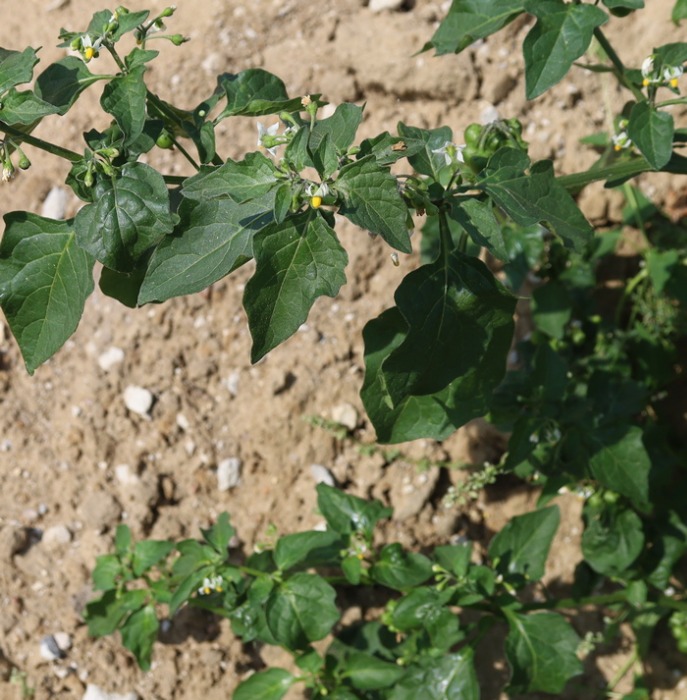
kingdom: Plantae
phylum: Tracheophyta
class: Magnoliopsida
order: Solanales
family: Solanaceae
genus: Solanum
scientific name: Solanum nigrum
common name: Sort natskygge
